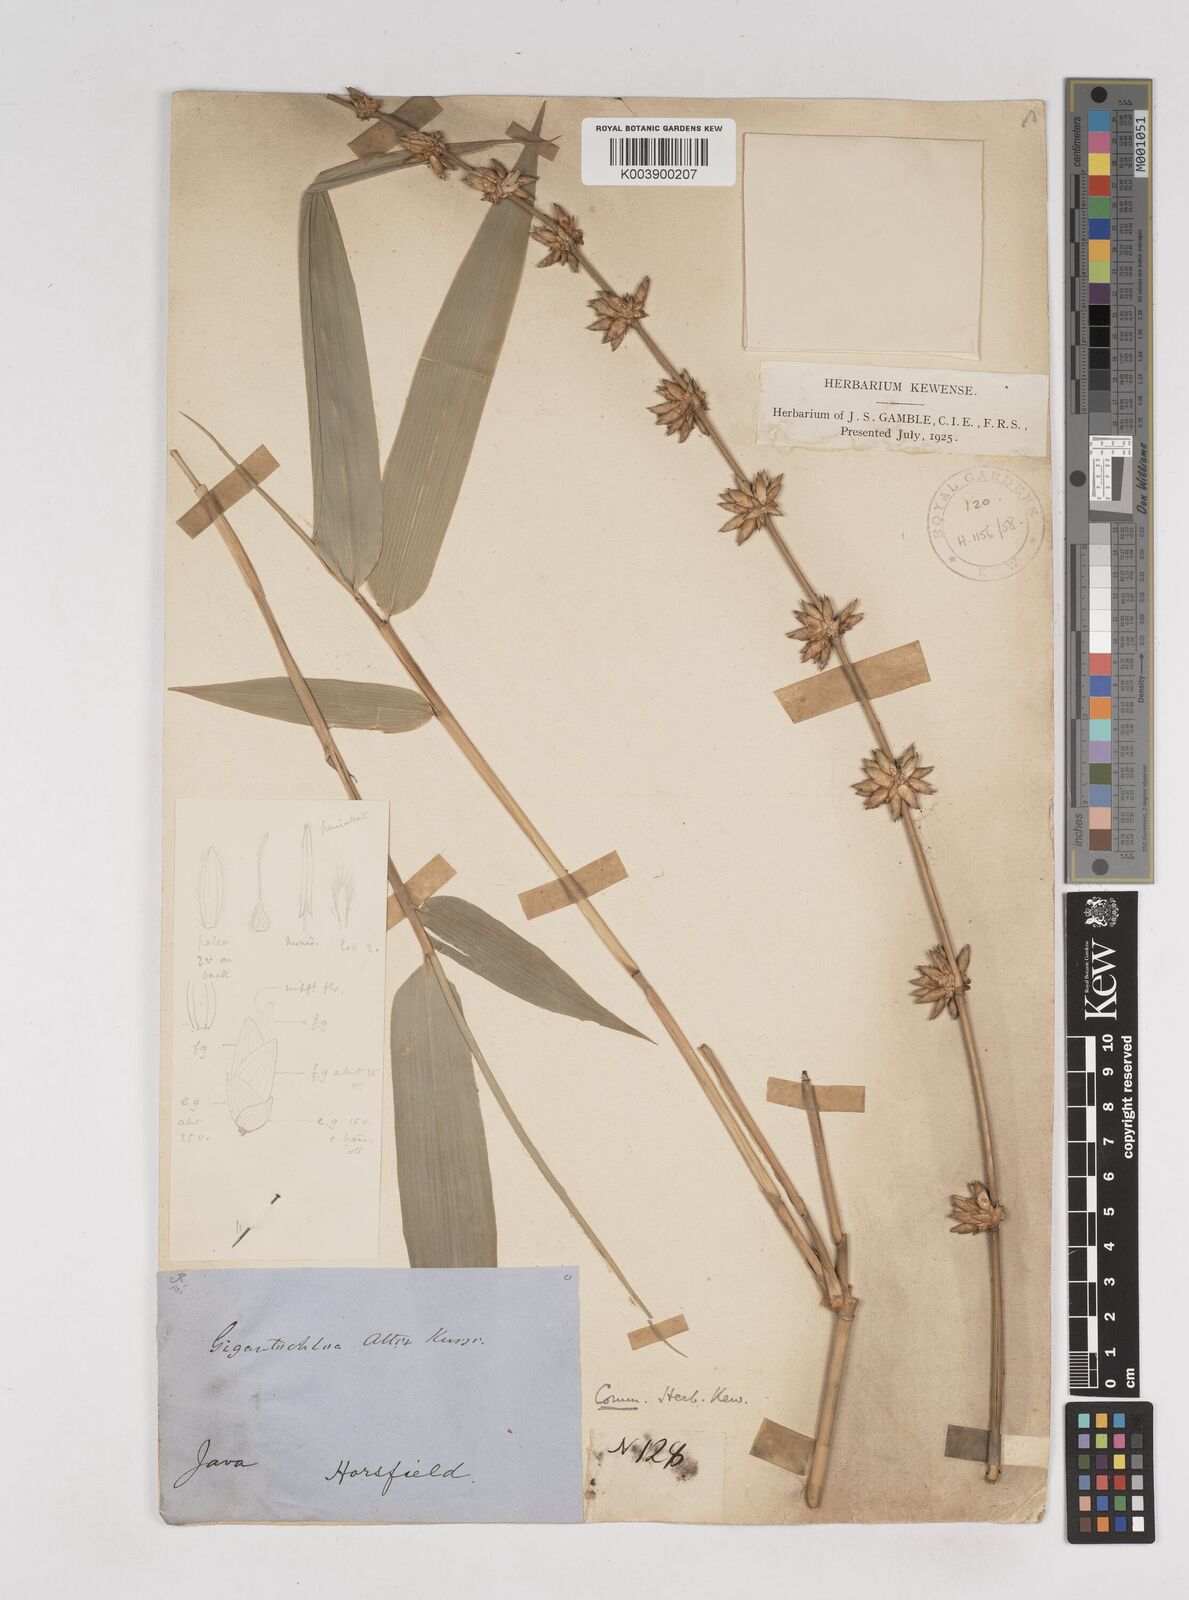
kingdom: Plantae
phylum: Tracheophyta
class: Liliopsida
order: Poales
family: Poaceae
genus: Gigantochloa
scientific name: Gigantochloa atter
